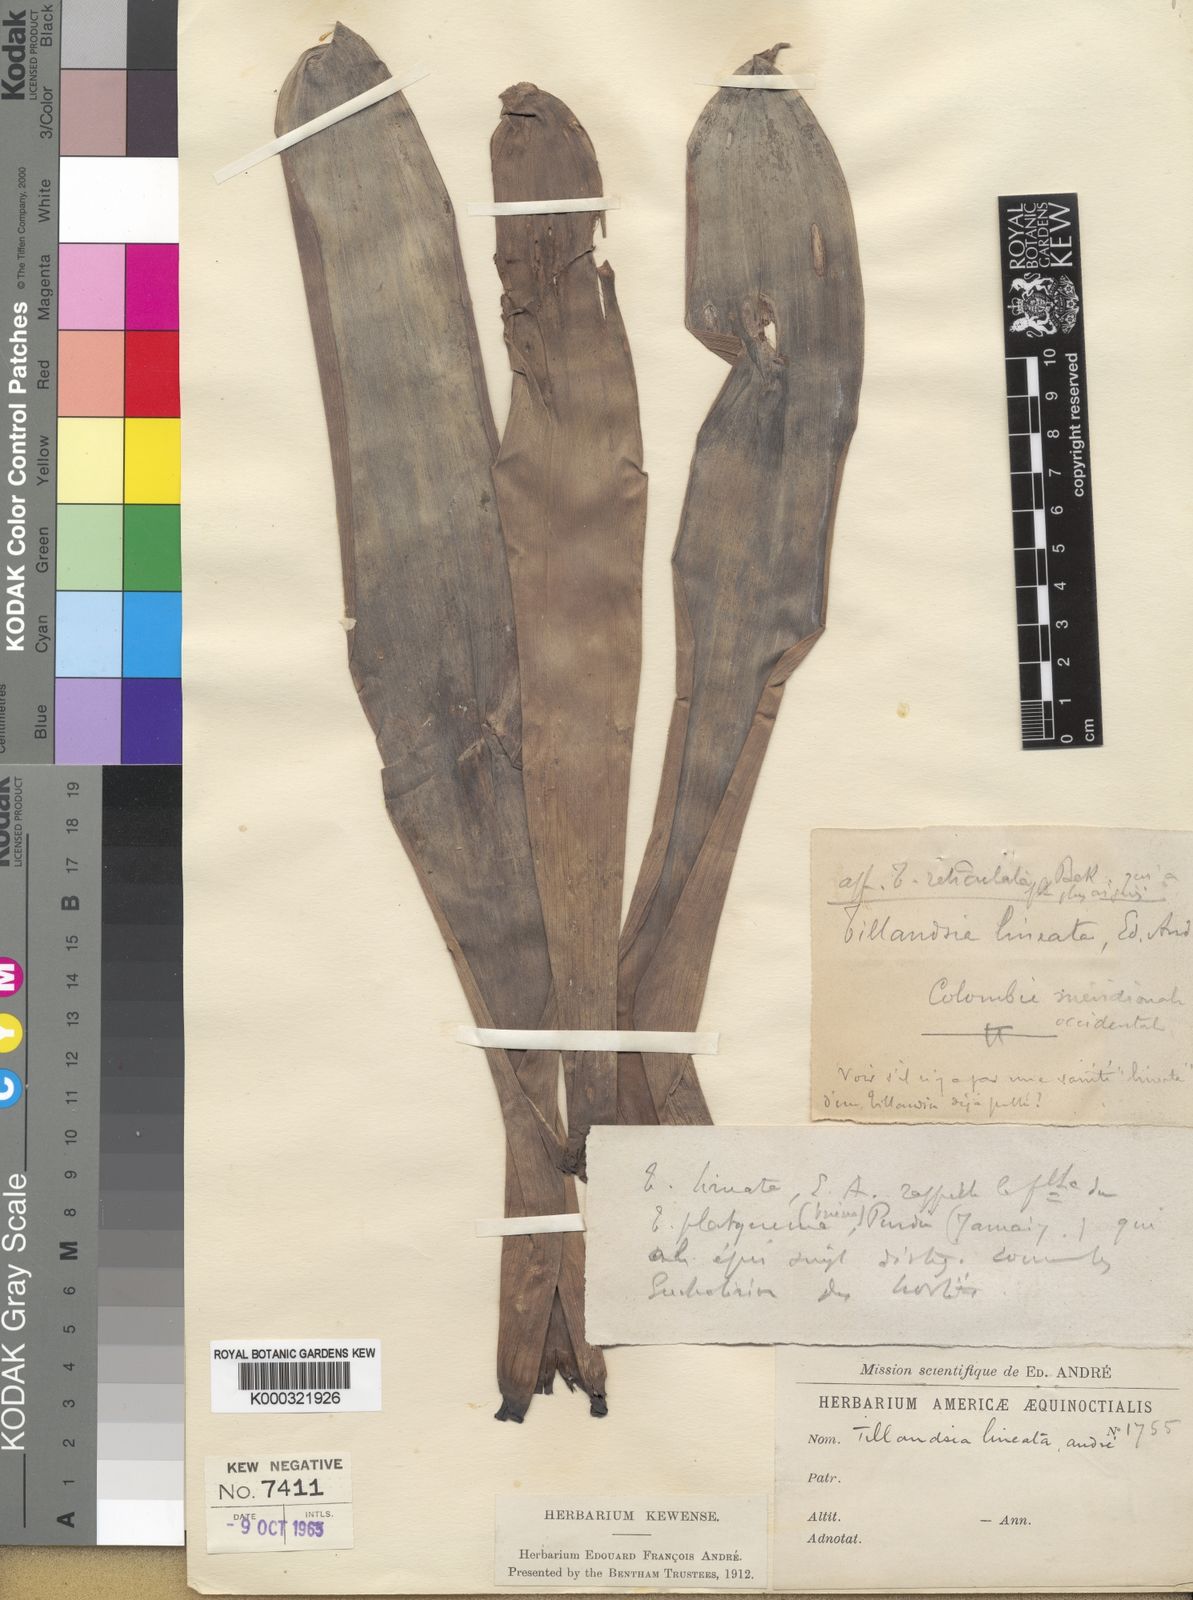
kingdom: Plantae
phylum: Tracheophyta
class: Liliopsida
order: Poales
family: Bromeliaceae
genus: Tillandsia
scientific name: Tillandsia
